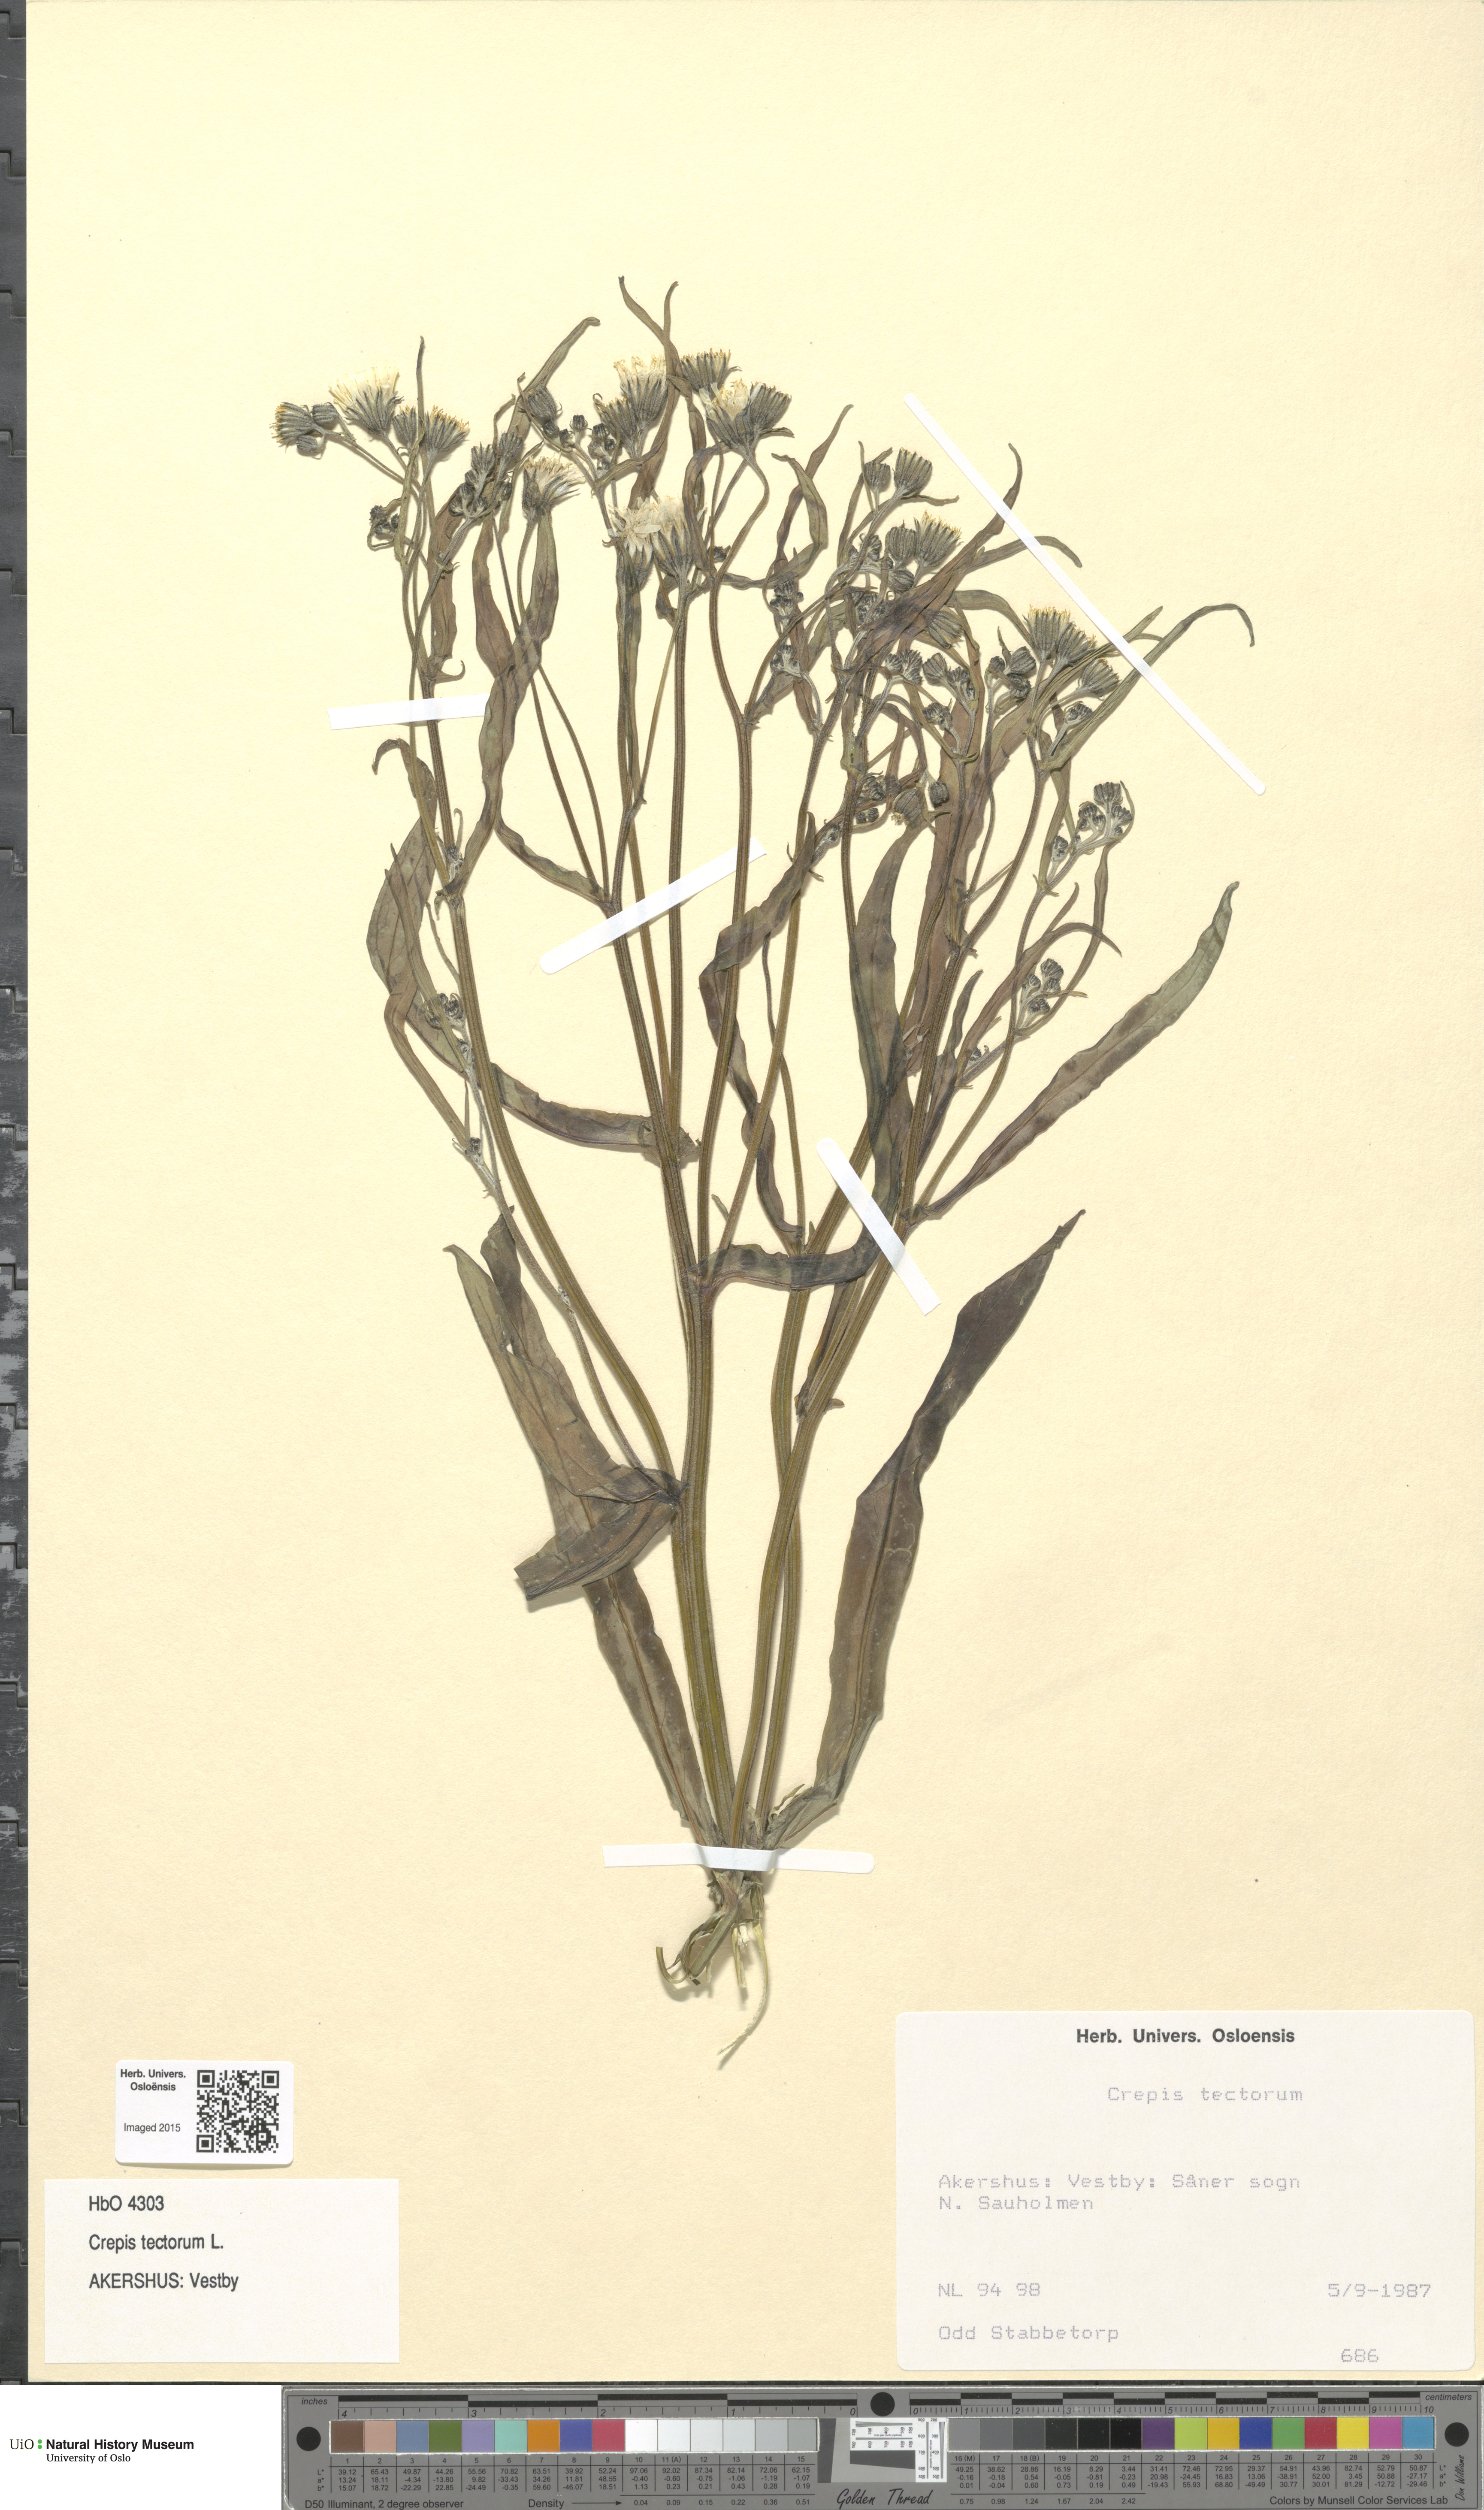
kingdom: Plantae
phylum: Tracheophyta
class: Magnoliopsida
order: Asterales
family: Asteraceae
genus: Crepis
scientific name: Crepis tectorum
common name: Narrow-leaved hawk's-beard
